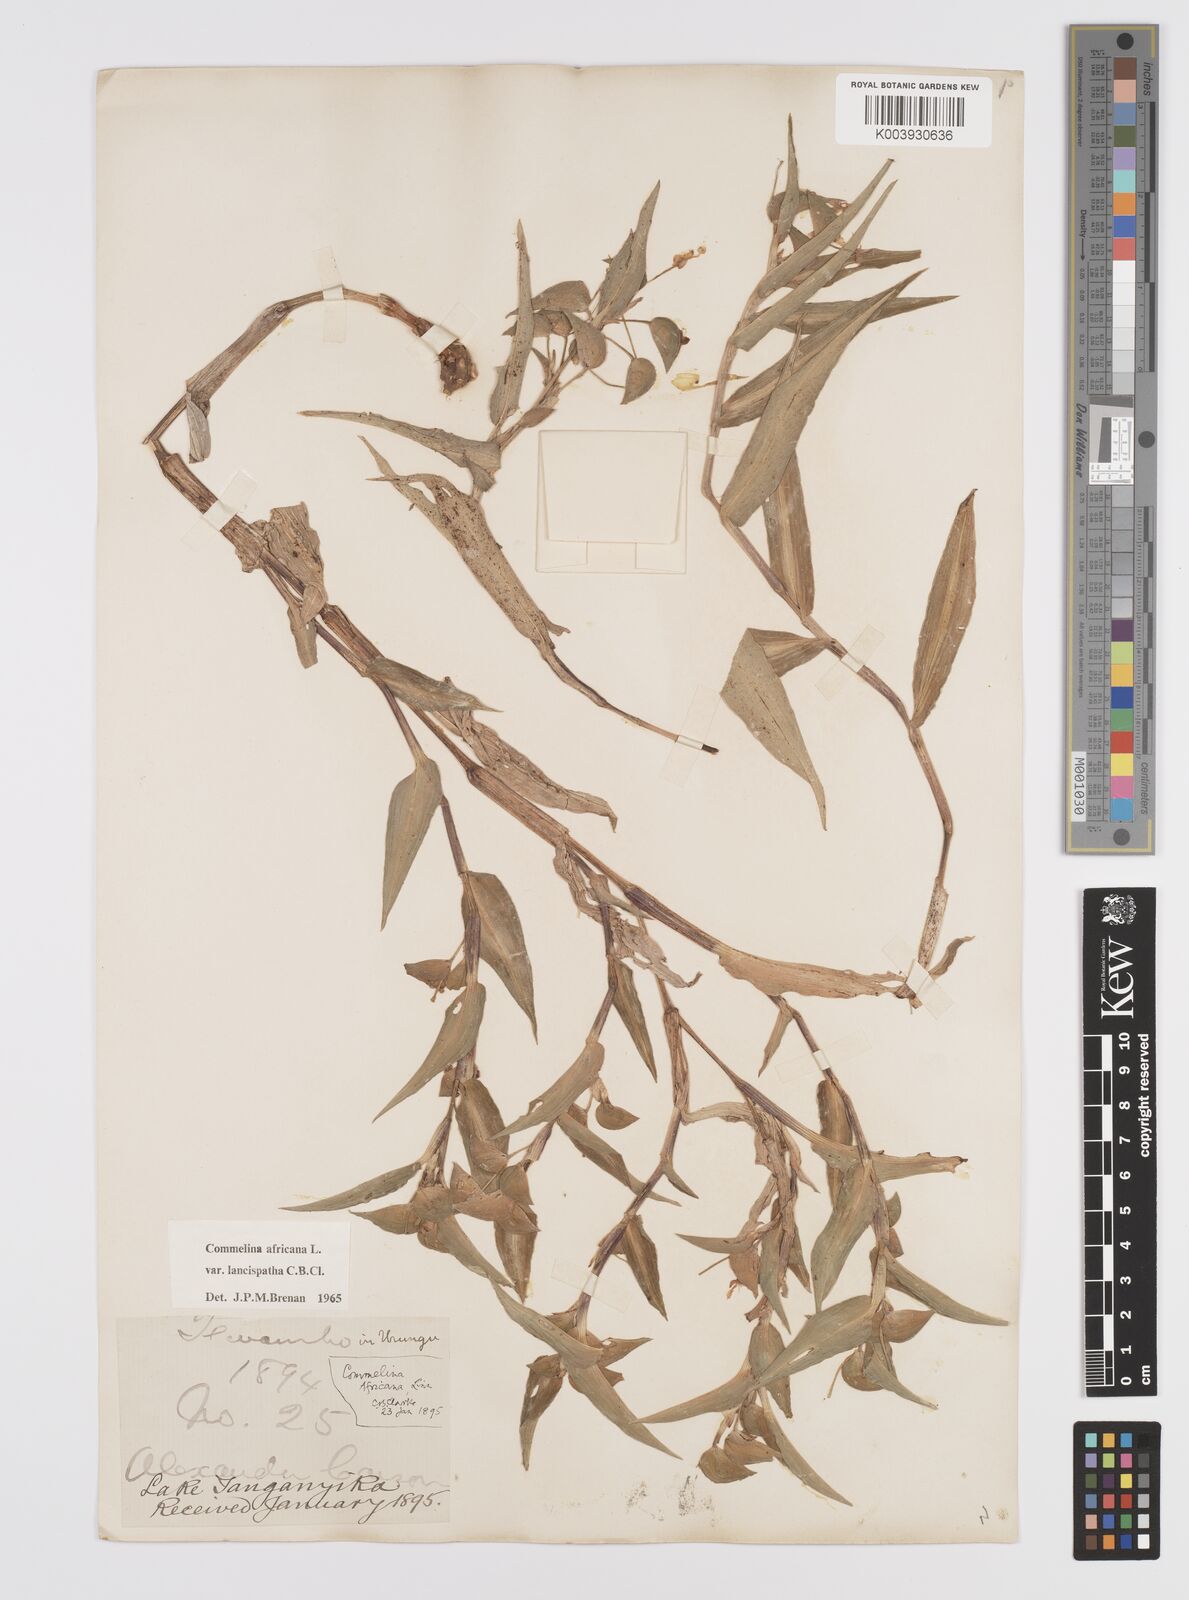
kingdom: Plantae
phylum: Tracheophyta
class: Liliopsida
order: Commelinales
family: Commelinaceae
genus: Commelina
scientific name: Commelina africana
